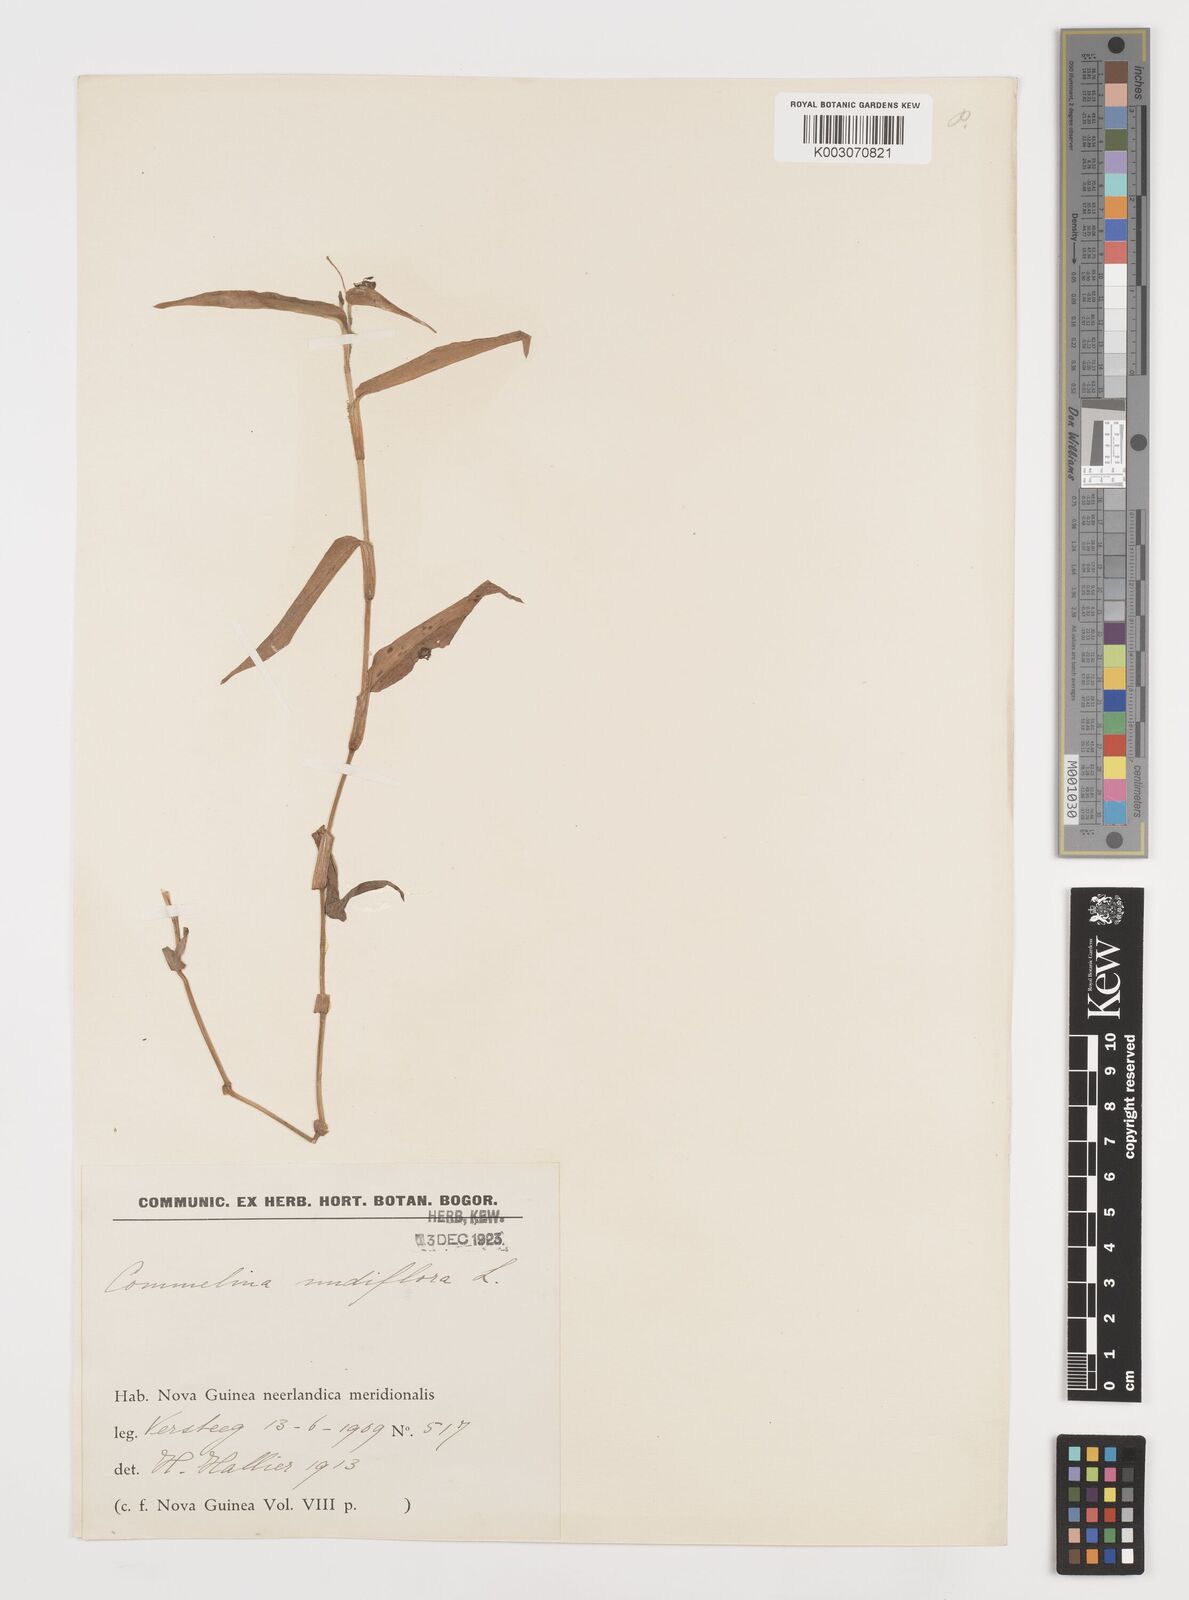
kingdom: Plantae
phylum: Tracheophyta
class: Liliopsida
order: Commelinales
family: Commelinaceae
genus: Murdannia
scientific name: Murdannia nudiflora
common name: Nakedstem dewflower
